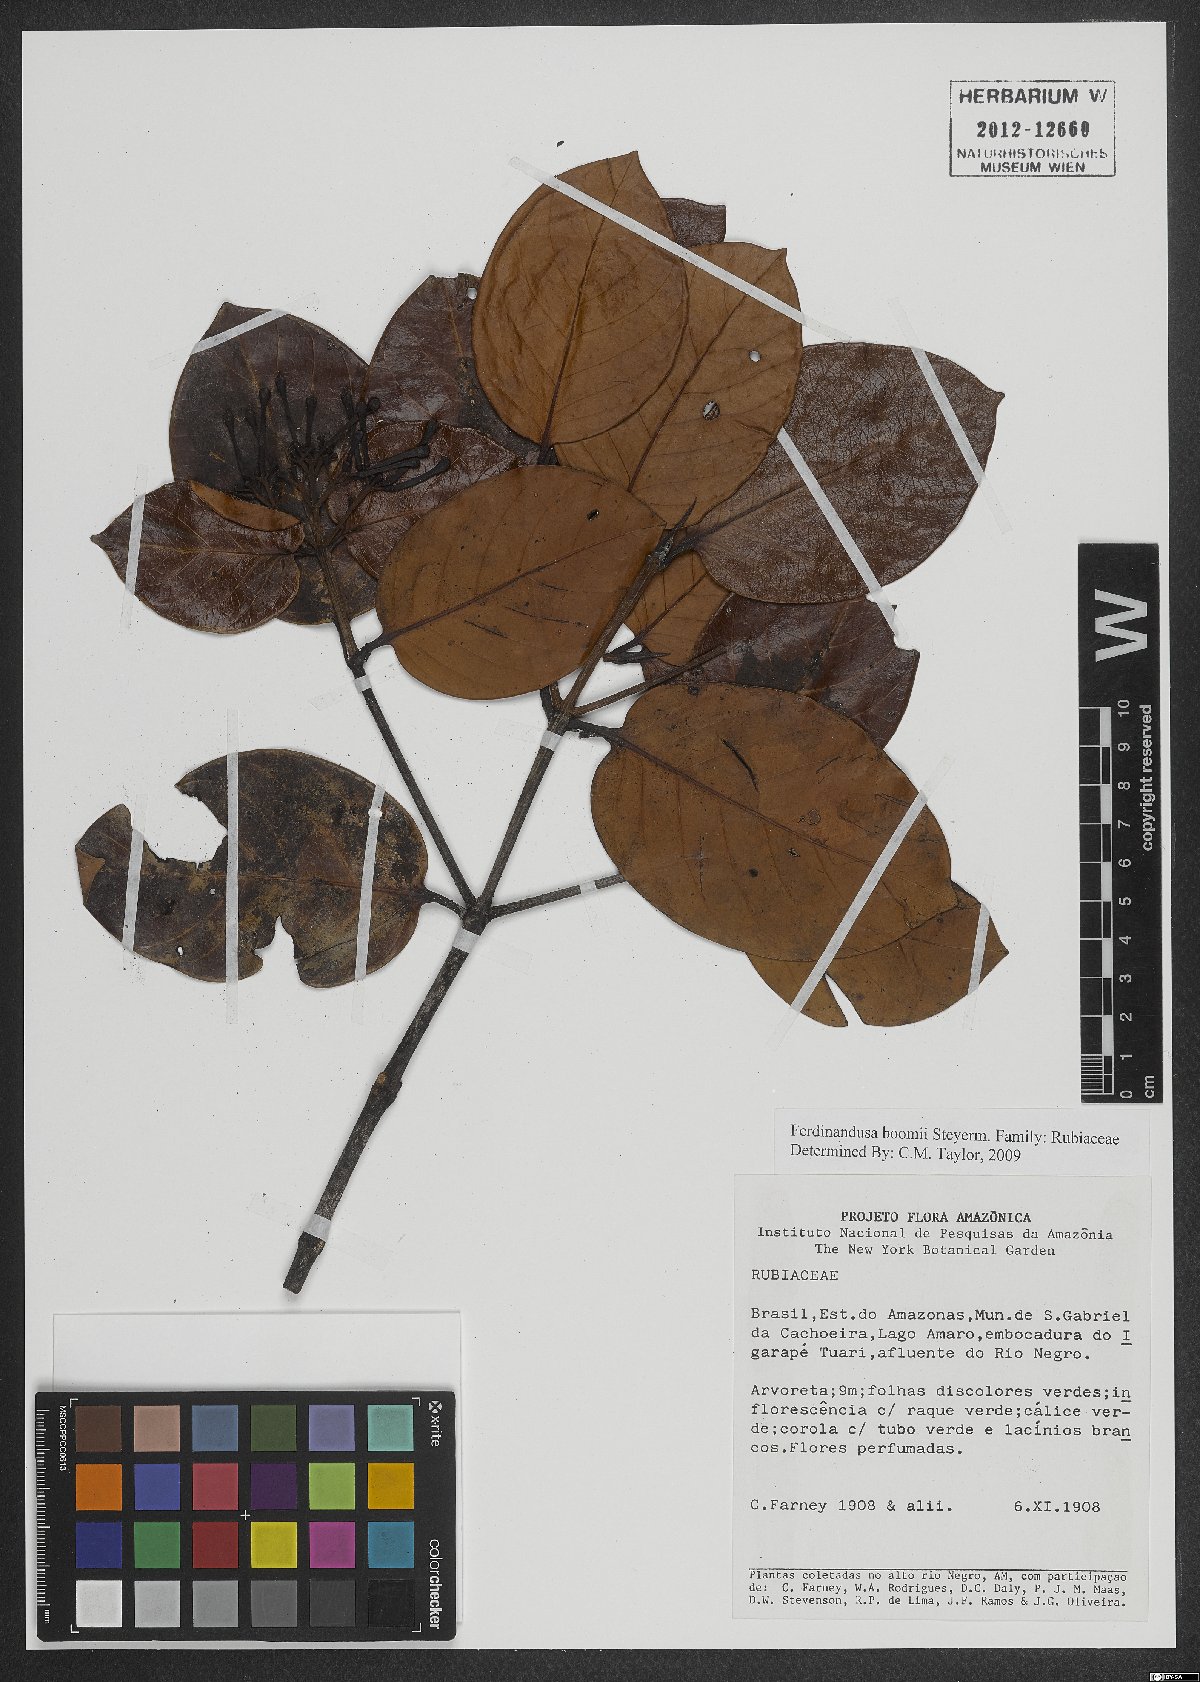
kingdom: Plantae
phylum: Tracheophyta
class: Magnoliopsida
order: Gentianales
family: Rubiaceae
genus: Ferdinandusa
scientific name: Ferdinandusa boomii
